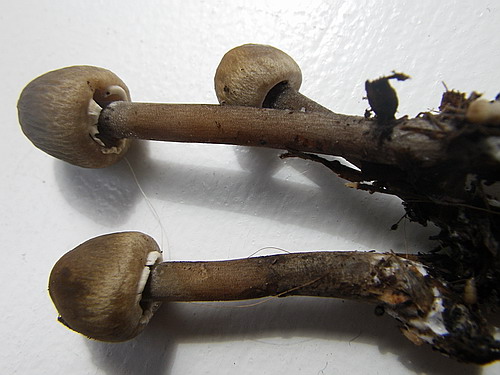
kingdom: Fungi
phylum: Basidiomycota
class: Agaricomycetes
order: Agaricales
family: Bolbitiaceae
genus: Panaeolus
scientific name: Panaeolus papilionaceus
